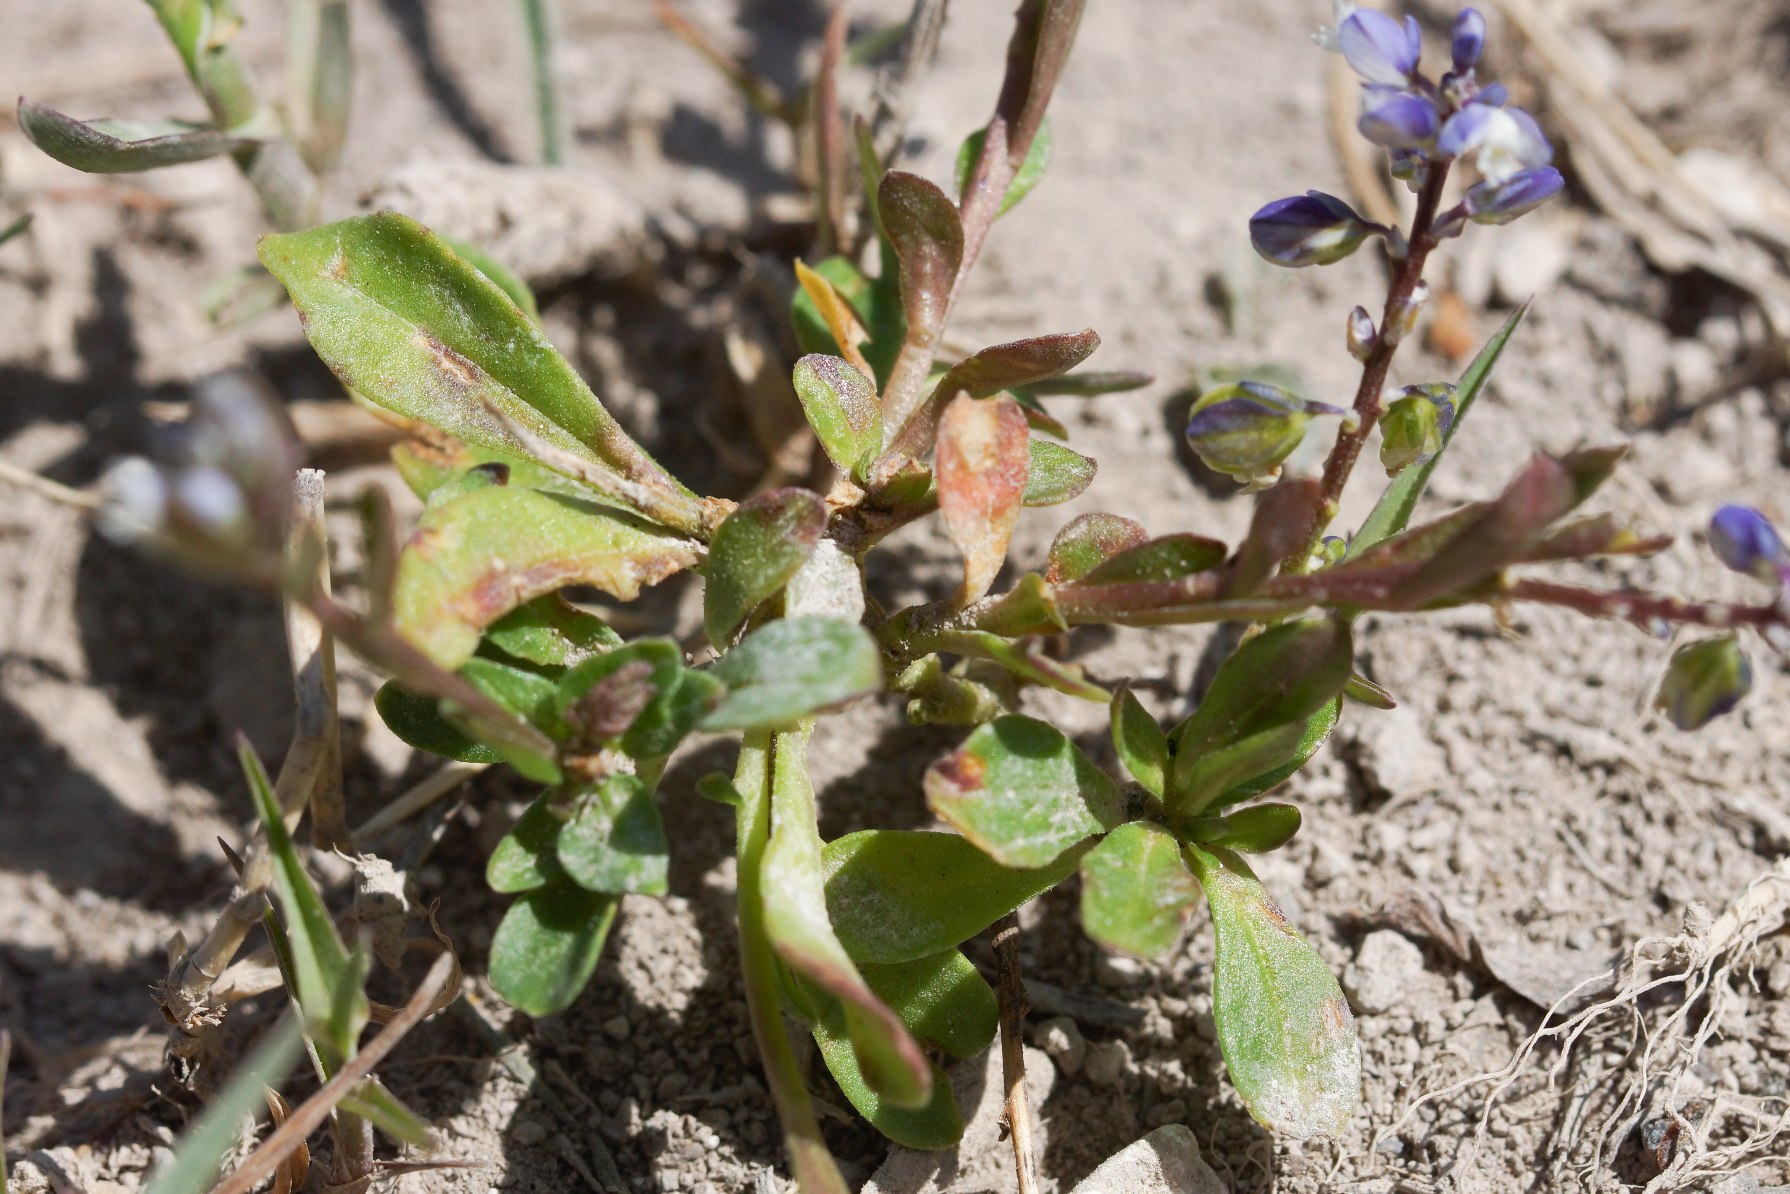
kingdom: Plantae
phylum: Tracheophyta
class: Magnoliopsida
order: Fabales
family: Polygalaceae
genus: Polygala
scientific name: Polygala amarella
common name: Bitter mælkeurt
